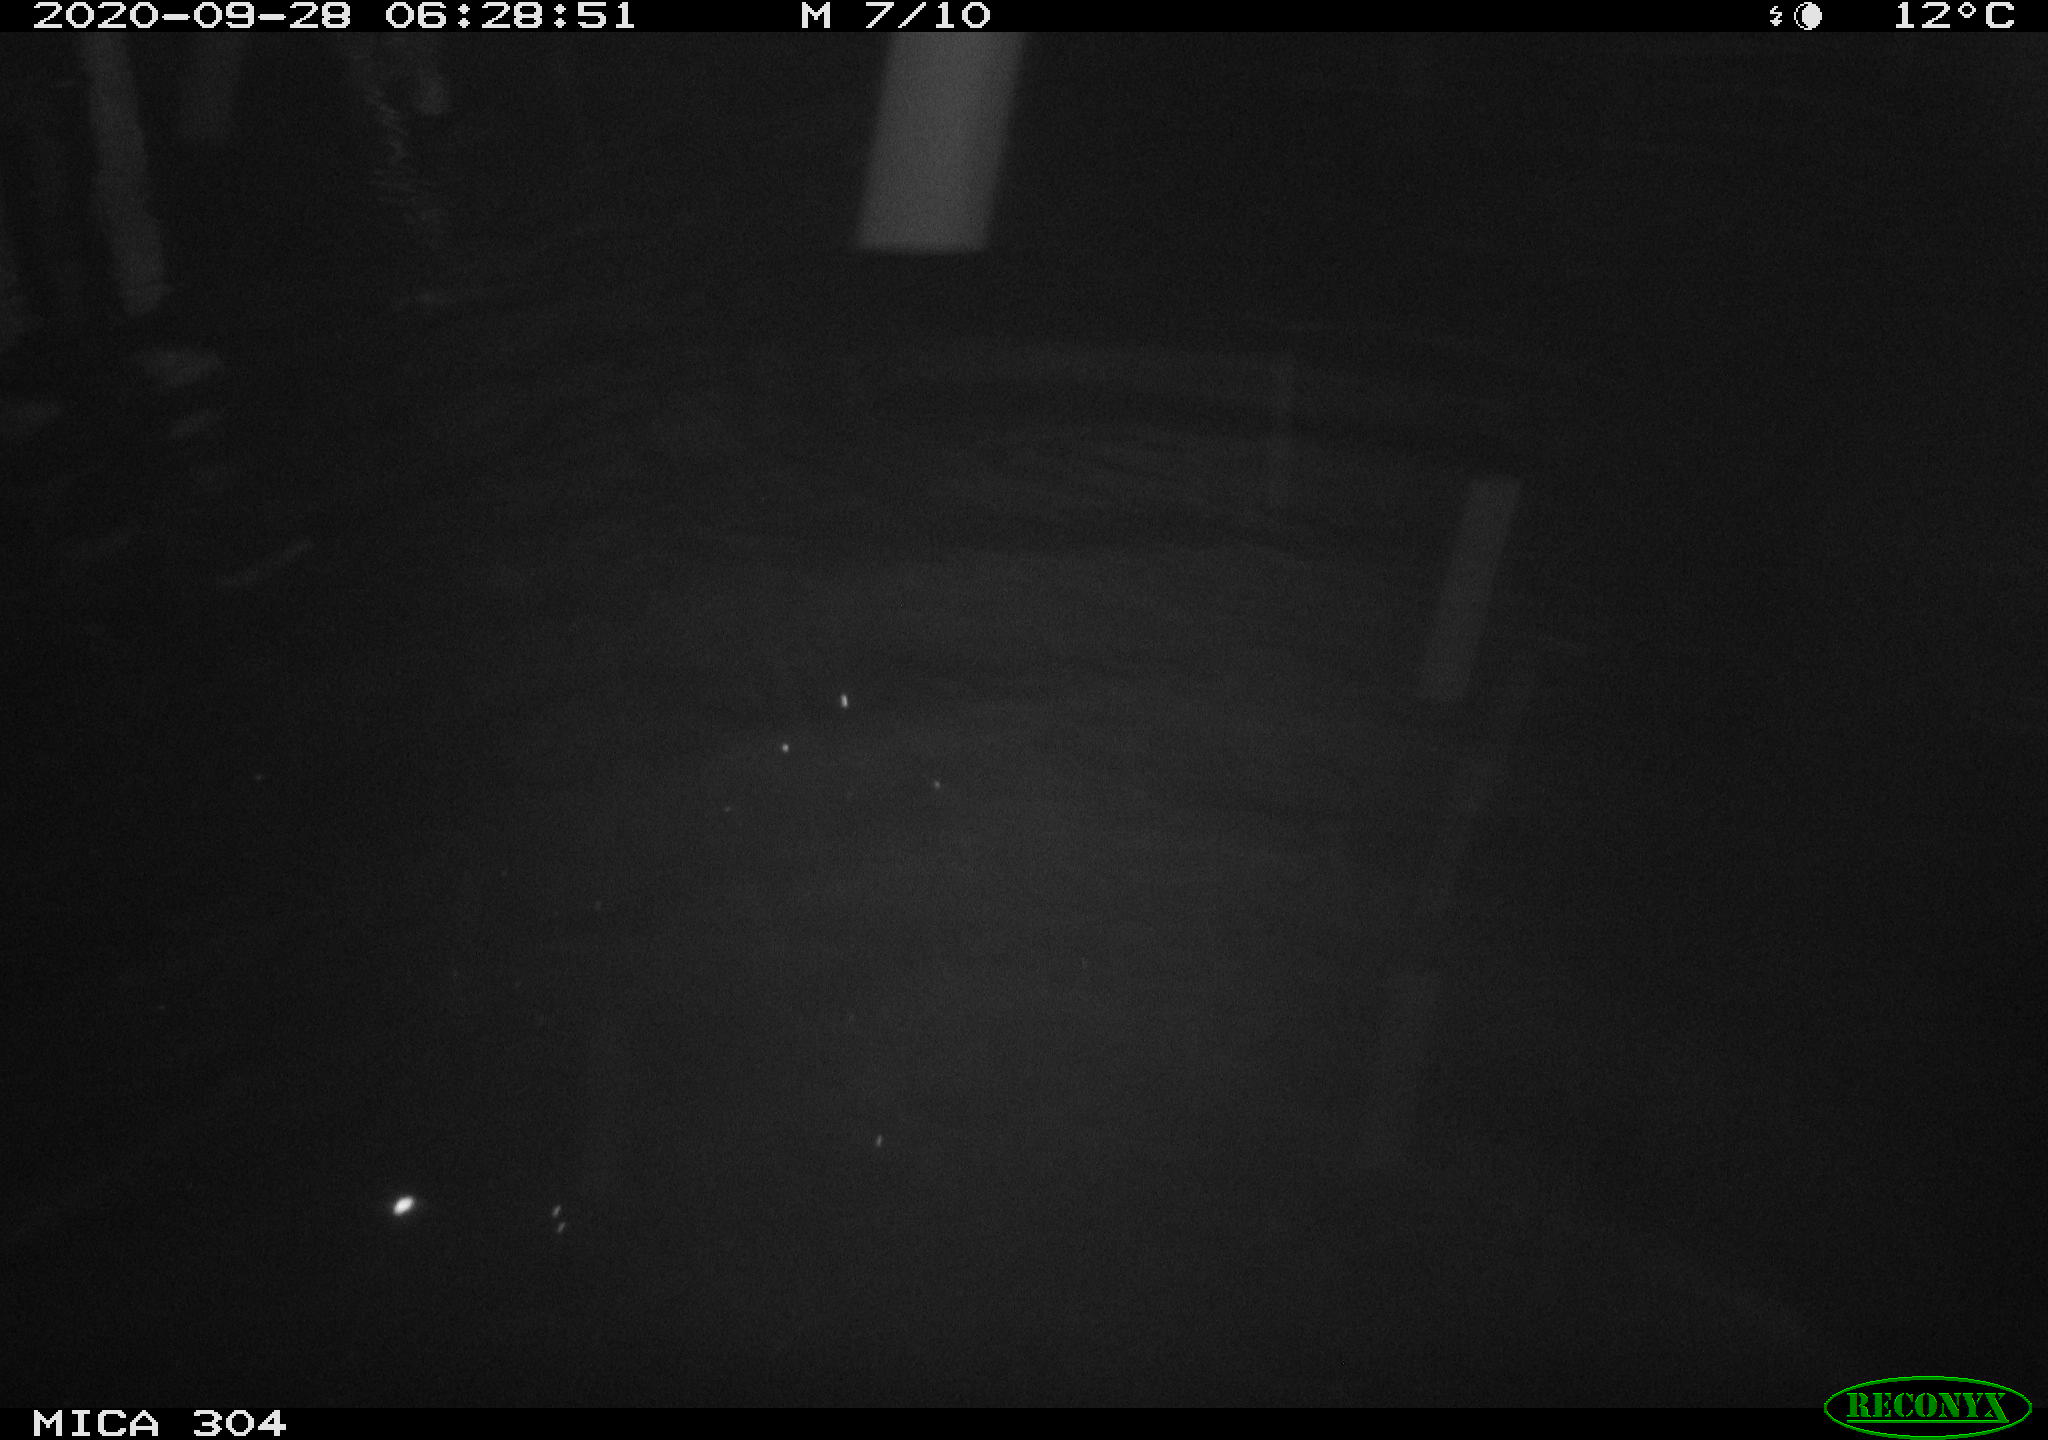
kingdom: Animalia
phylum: Chordata
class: Mammalia
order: Rodentia
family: Cricetidae
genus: Ondatra
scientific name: Ondatra zibethicus
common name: Muskrat
